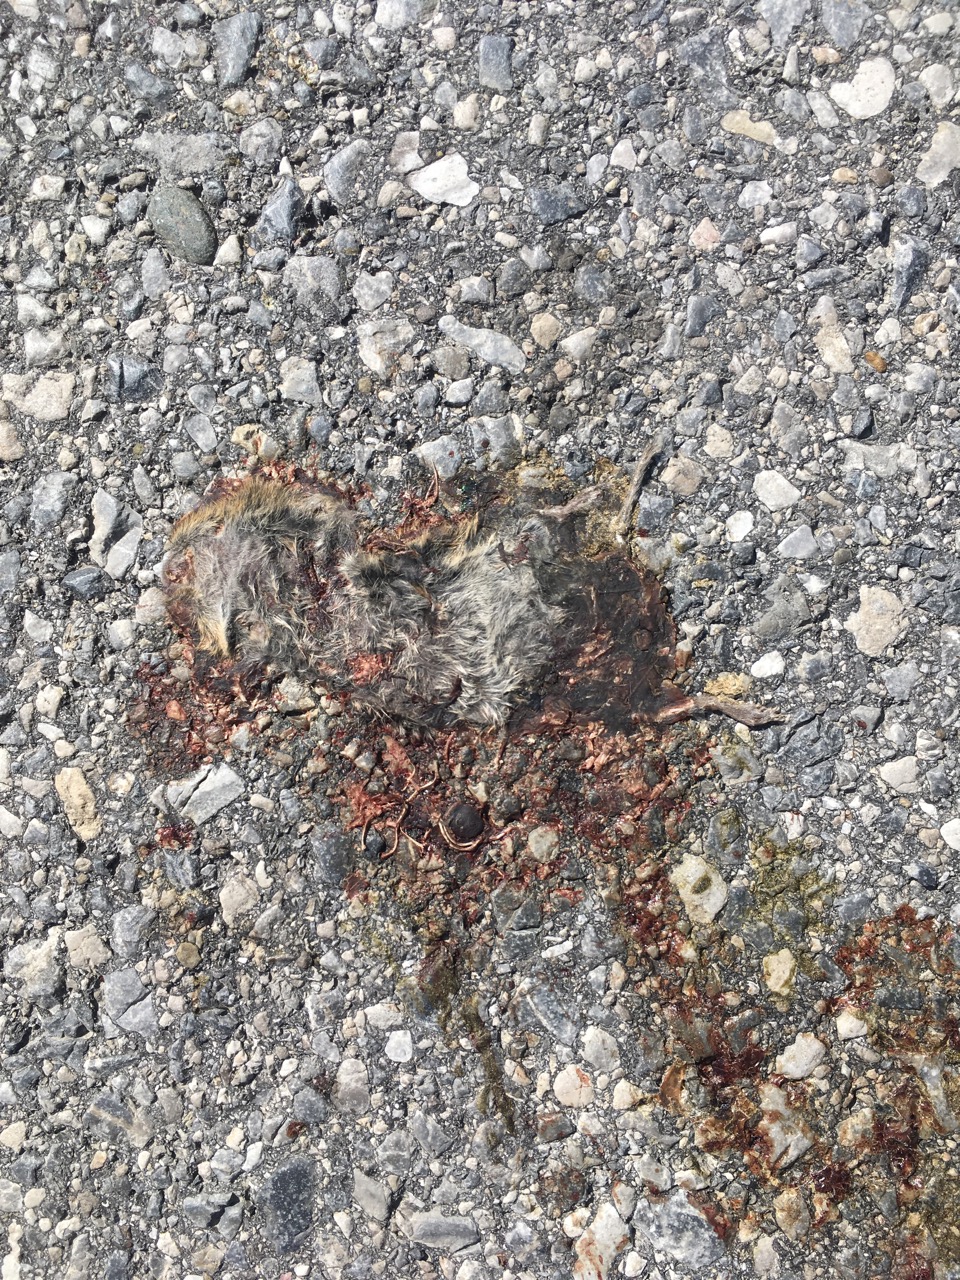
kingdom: Animalia
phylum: Chordata
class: Mammalia
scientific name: Mammalia
